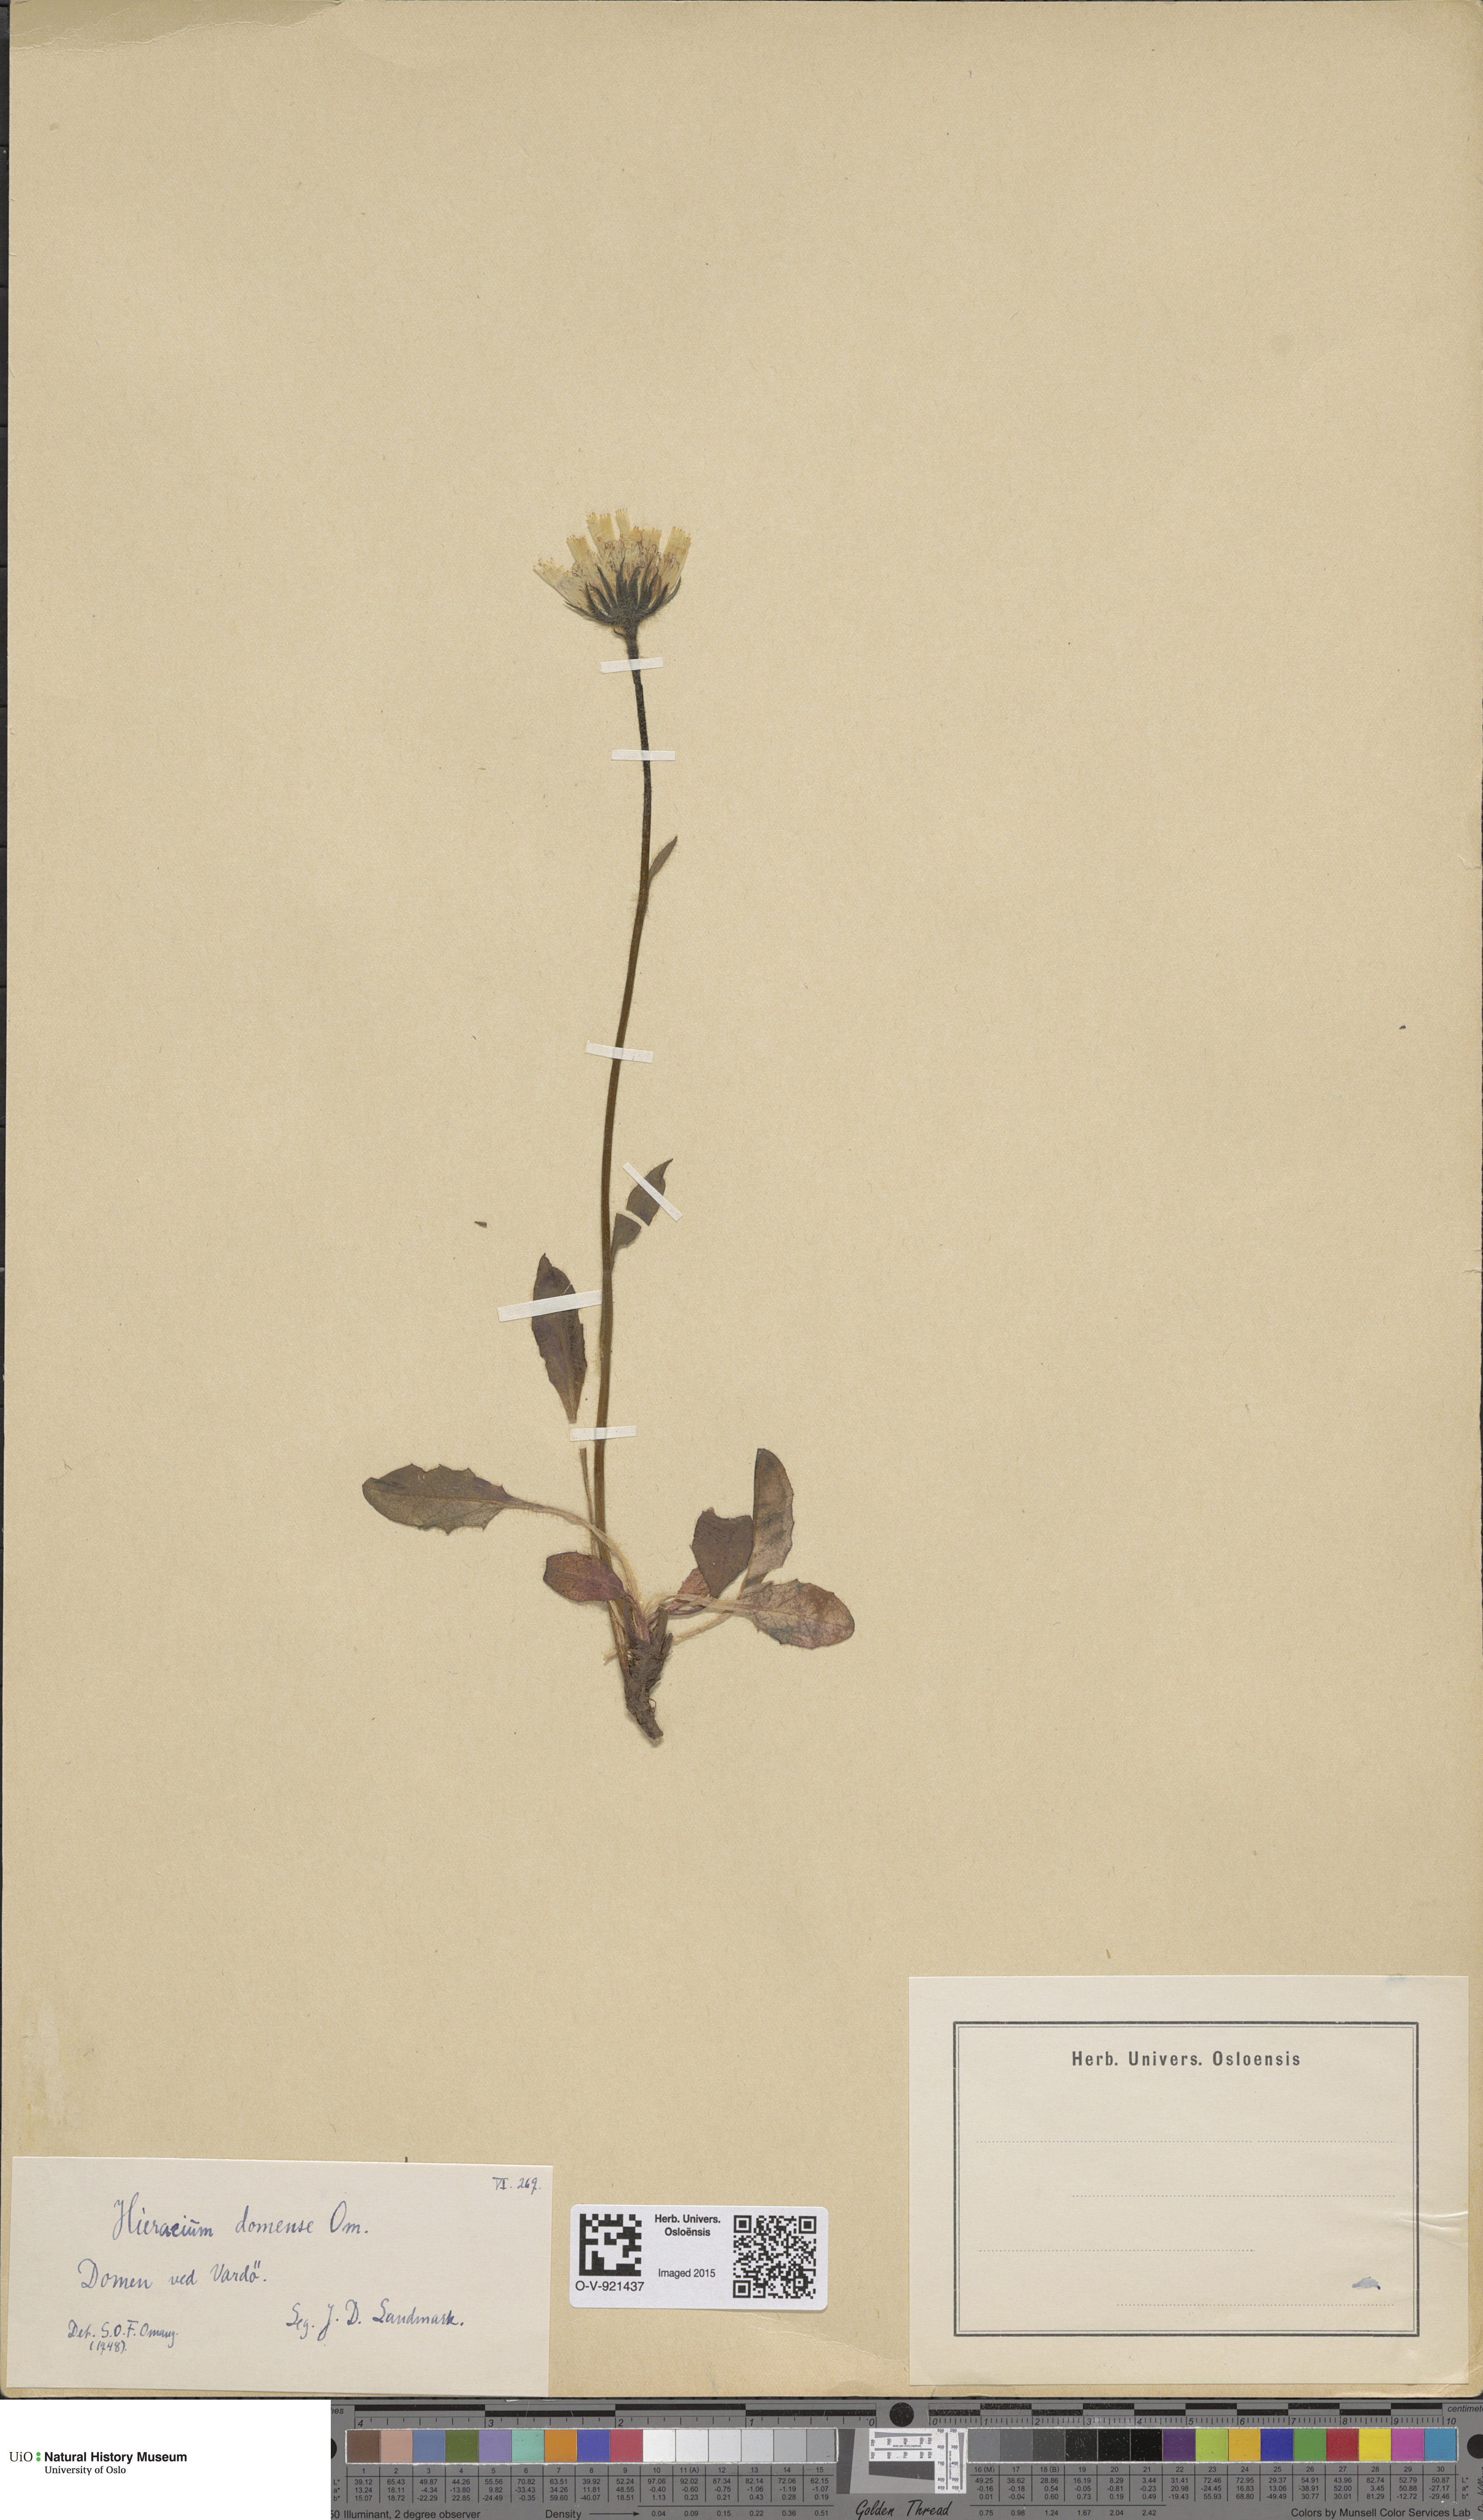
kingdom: Plantae
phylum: Tracheophyta
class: Magnoliopsida
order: Asterales
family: Asteraceae
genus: Hieracium
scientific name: Hieracium
